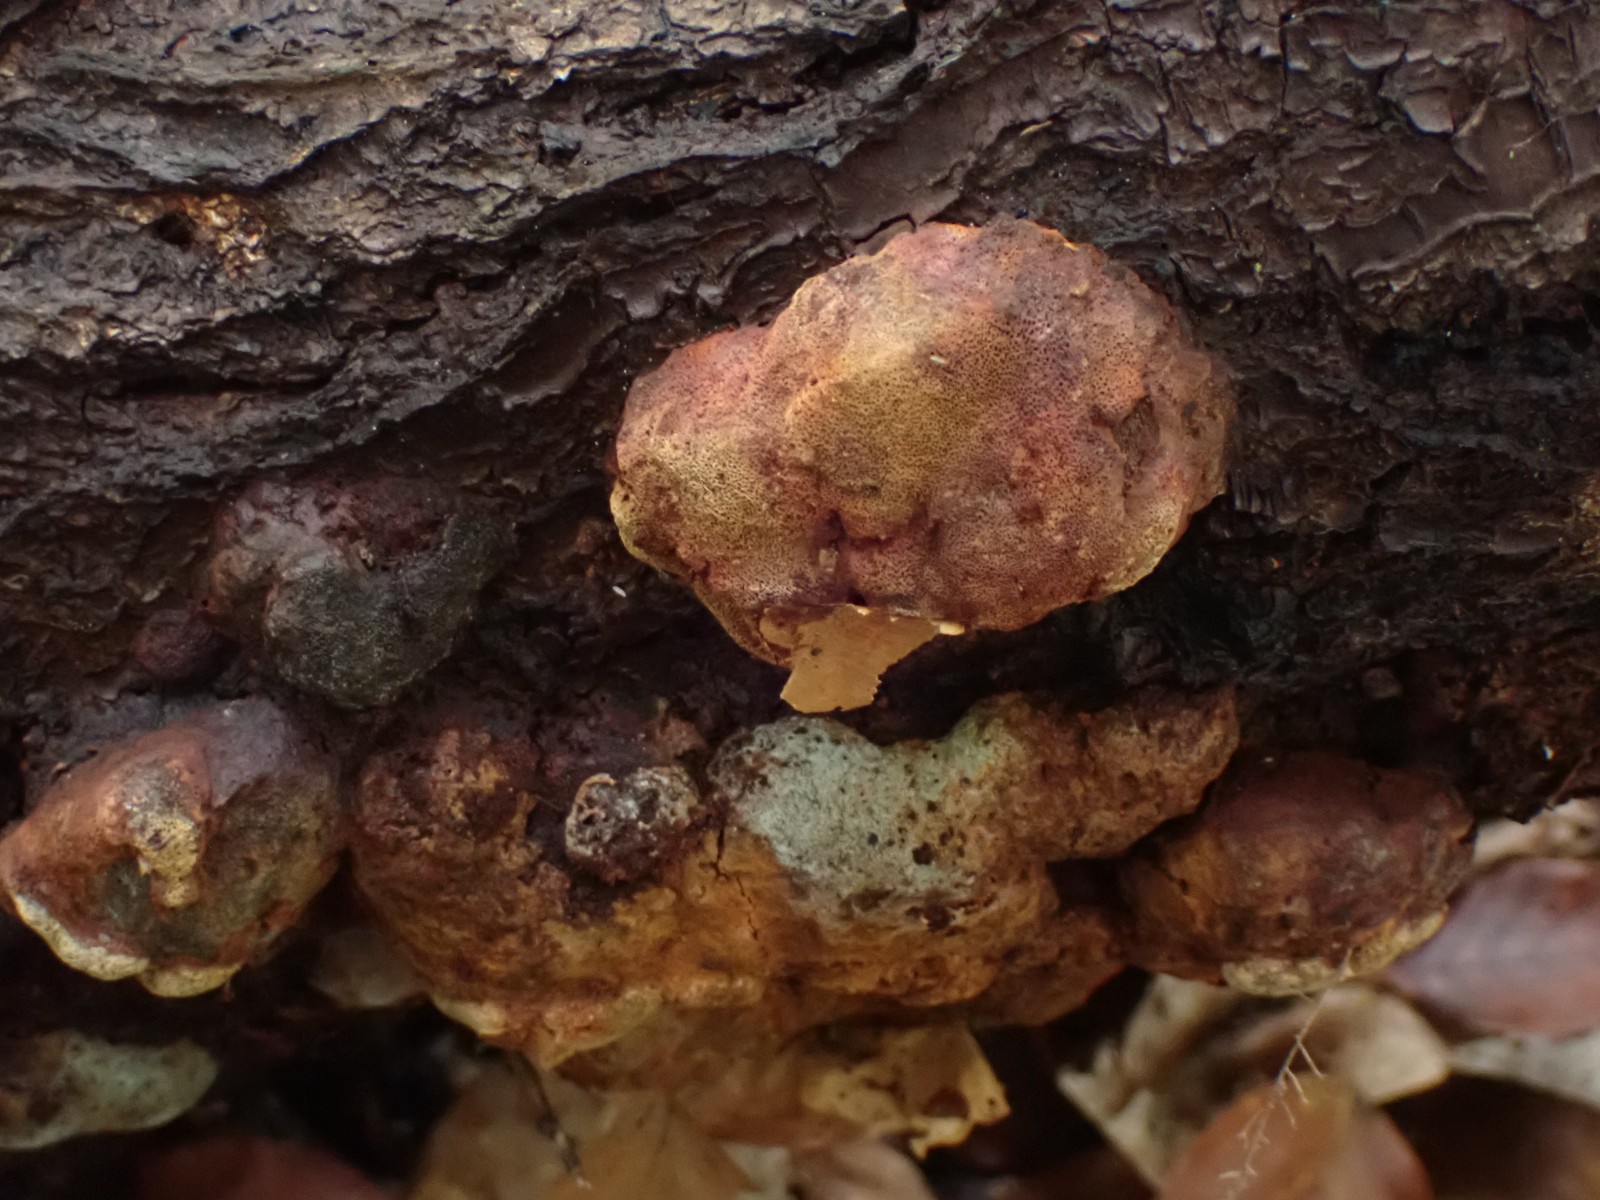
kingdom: Fungi
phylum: Basidiomycota
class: Agaricomycetes
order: Hymenochaetales
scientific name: Hymenochaetales
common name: børstesvampordenen
